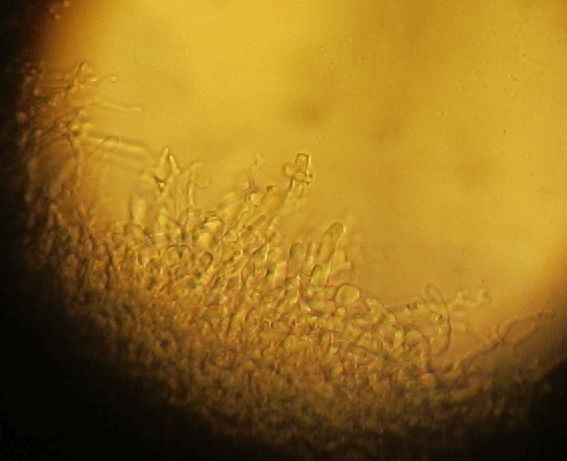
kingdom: Fungi
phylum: Basidiomycota
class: Agaricomycetes
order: Corticiales
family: Corticiaceae
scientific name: Corticiaceae
